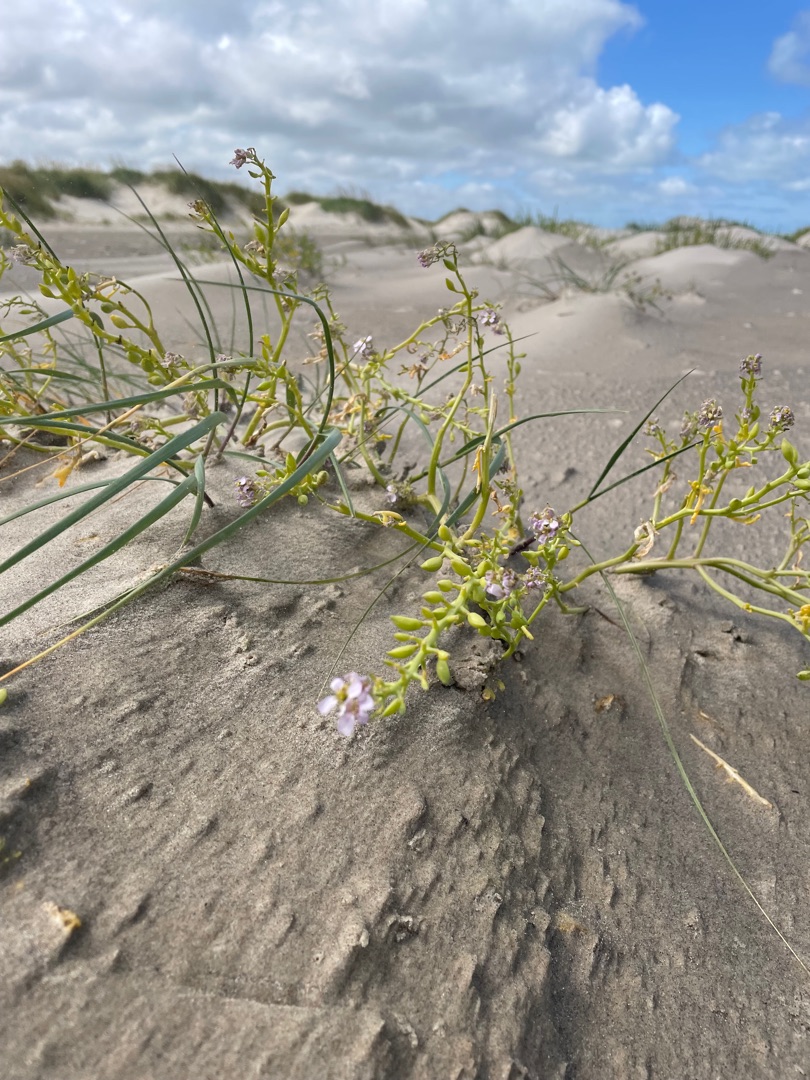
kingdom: Plantae
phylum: Tracheophyta
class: Magnoliopsida
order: Brassicales
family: Brassicaceae
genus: Cakile
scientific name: Cakile maritima
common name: Strandsennep
